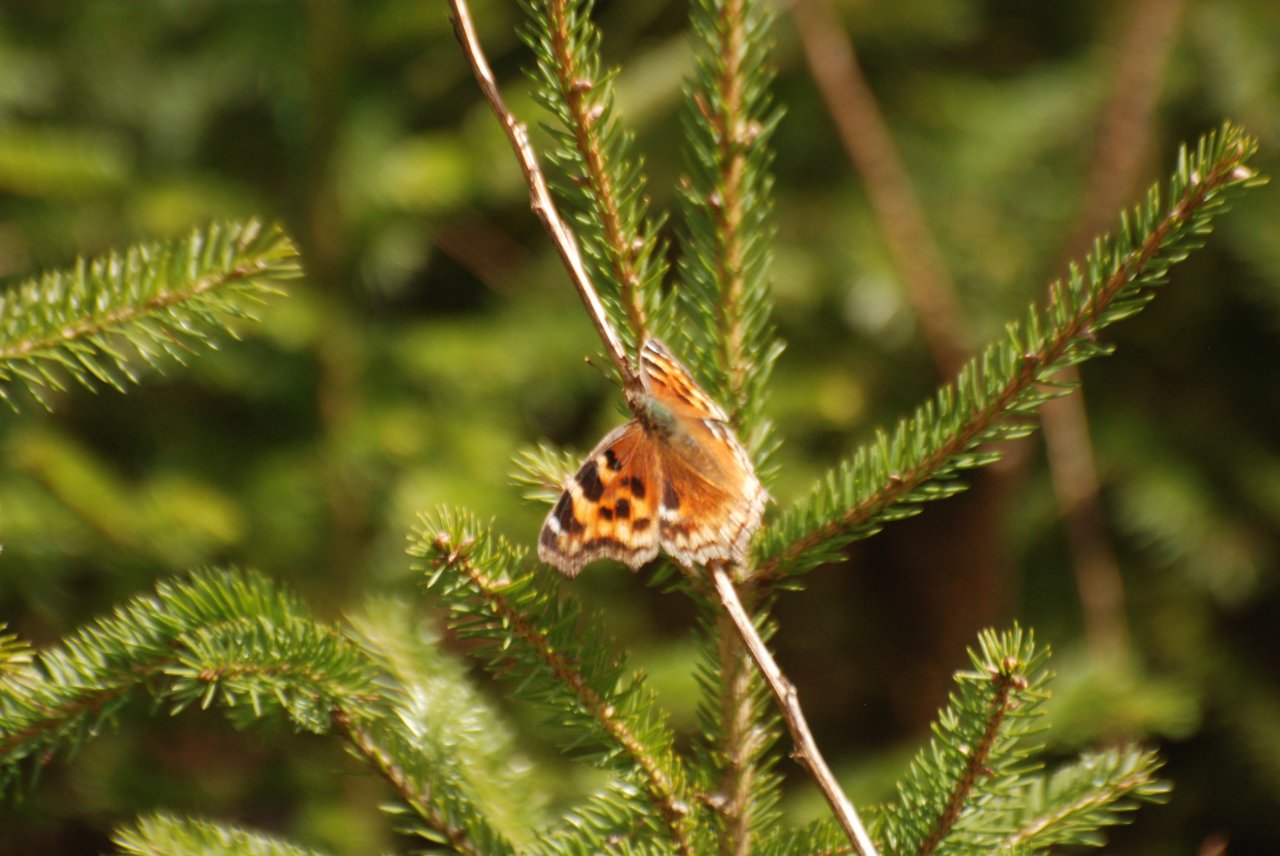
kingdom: Animalia
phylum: Arthropoda
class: Insecta
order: Lepidoptera
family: Nymphalidae
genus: Polygonia
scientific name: Polygonia vaualbum
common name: Compton Tortoiseshell
